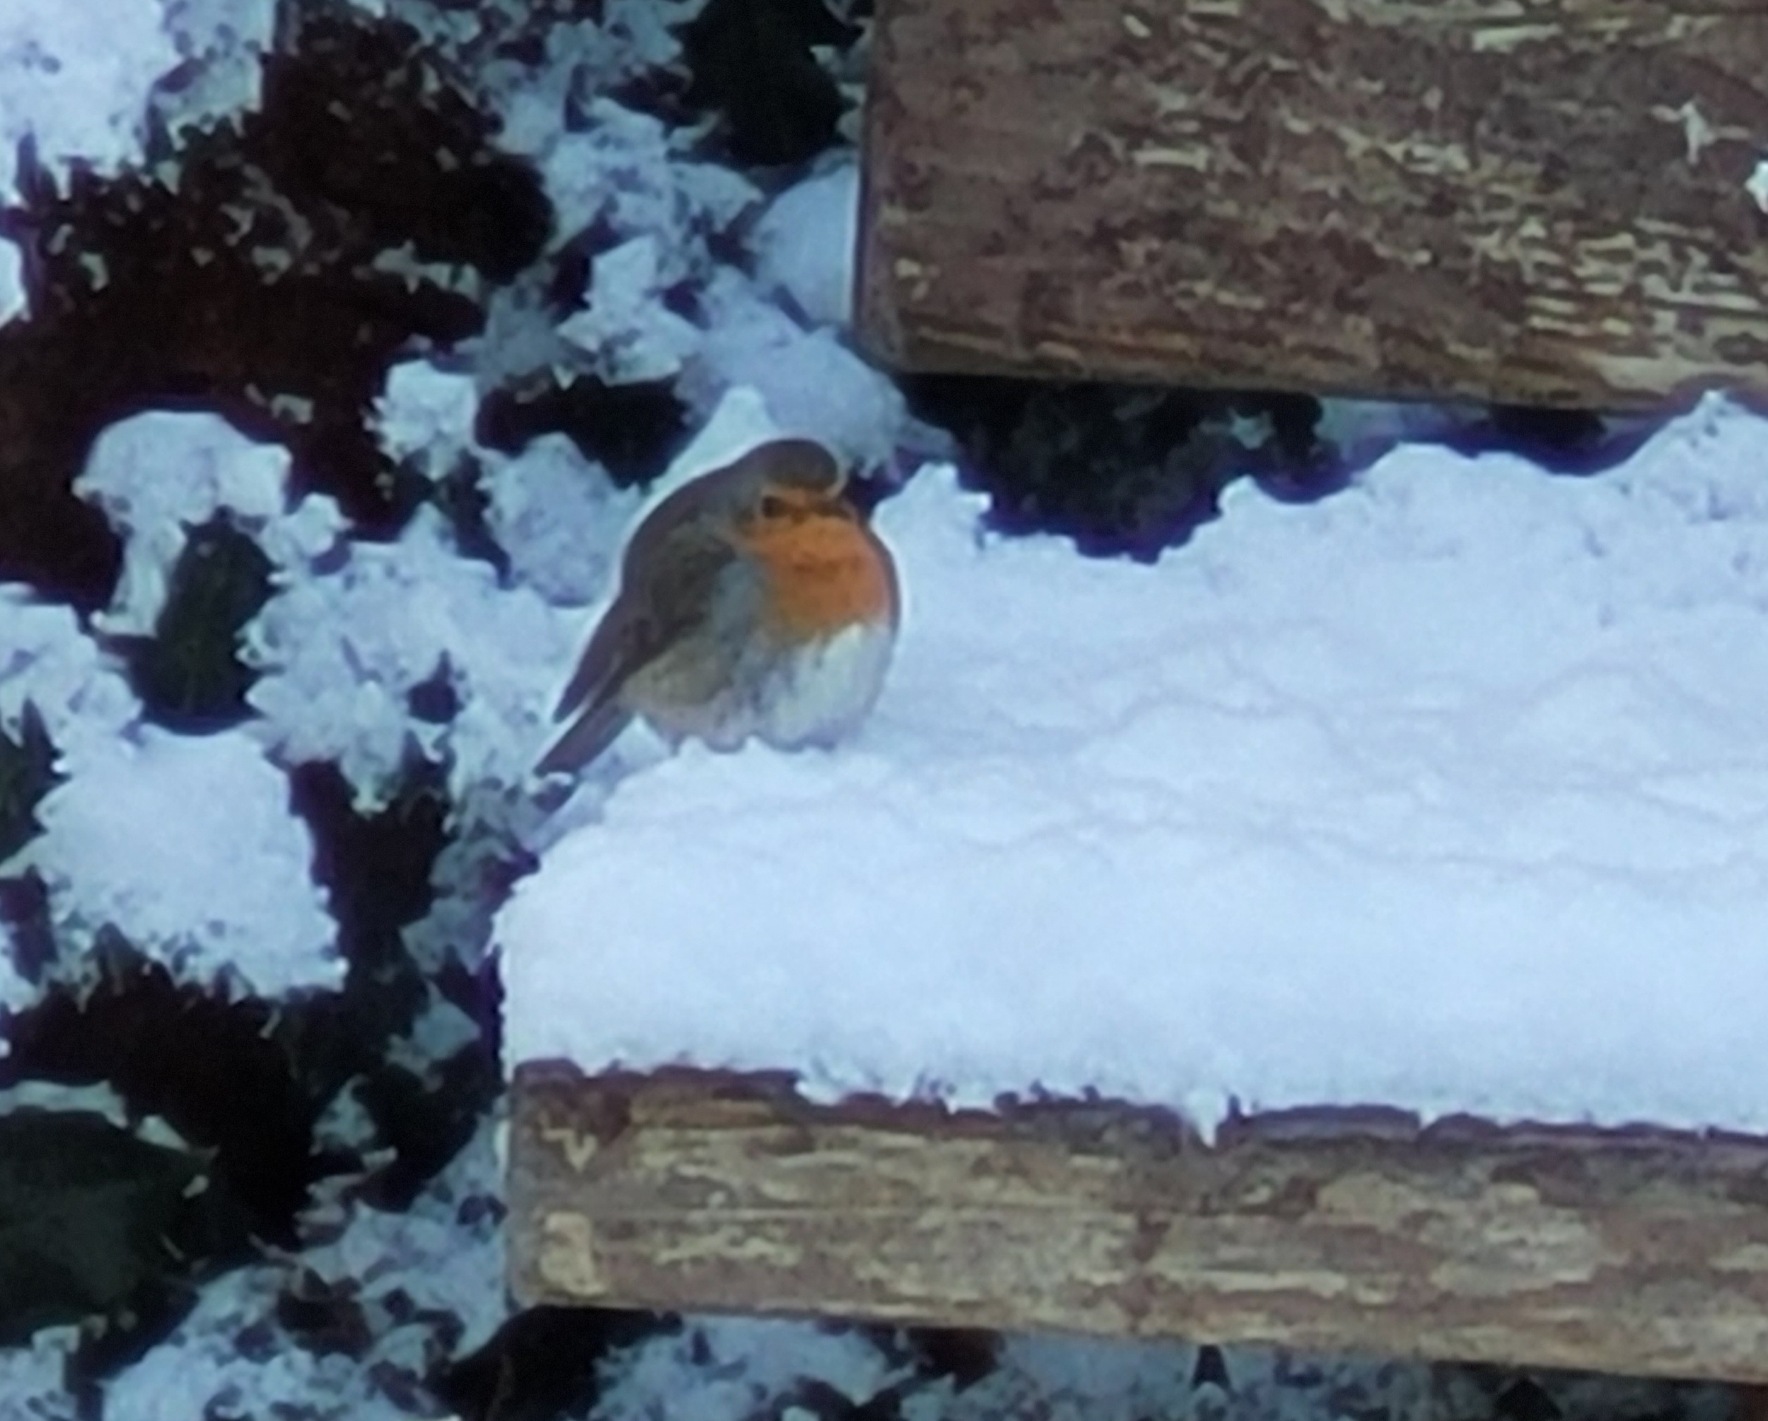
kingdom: Animalia
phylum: Chordata
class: Aves
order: Passeriformes
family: Muscicapidae
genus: Erithacus
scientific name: Erithacus rubecula
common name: Rødhals/rødkælk
